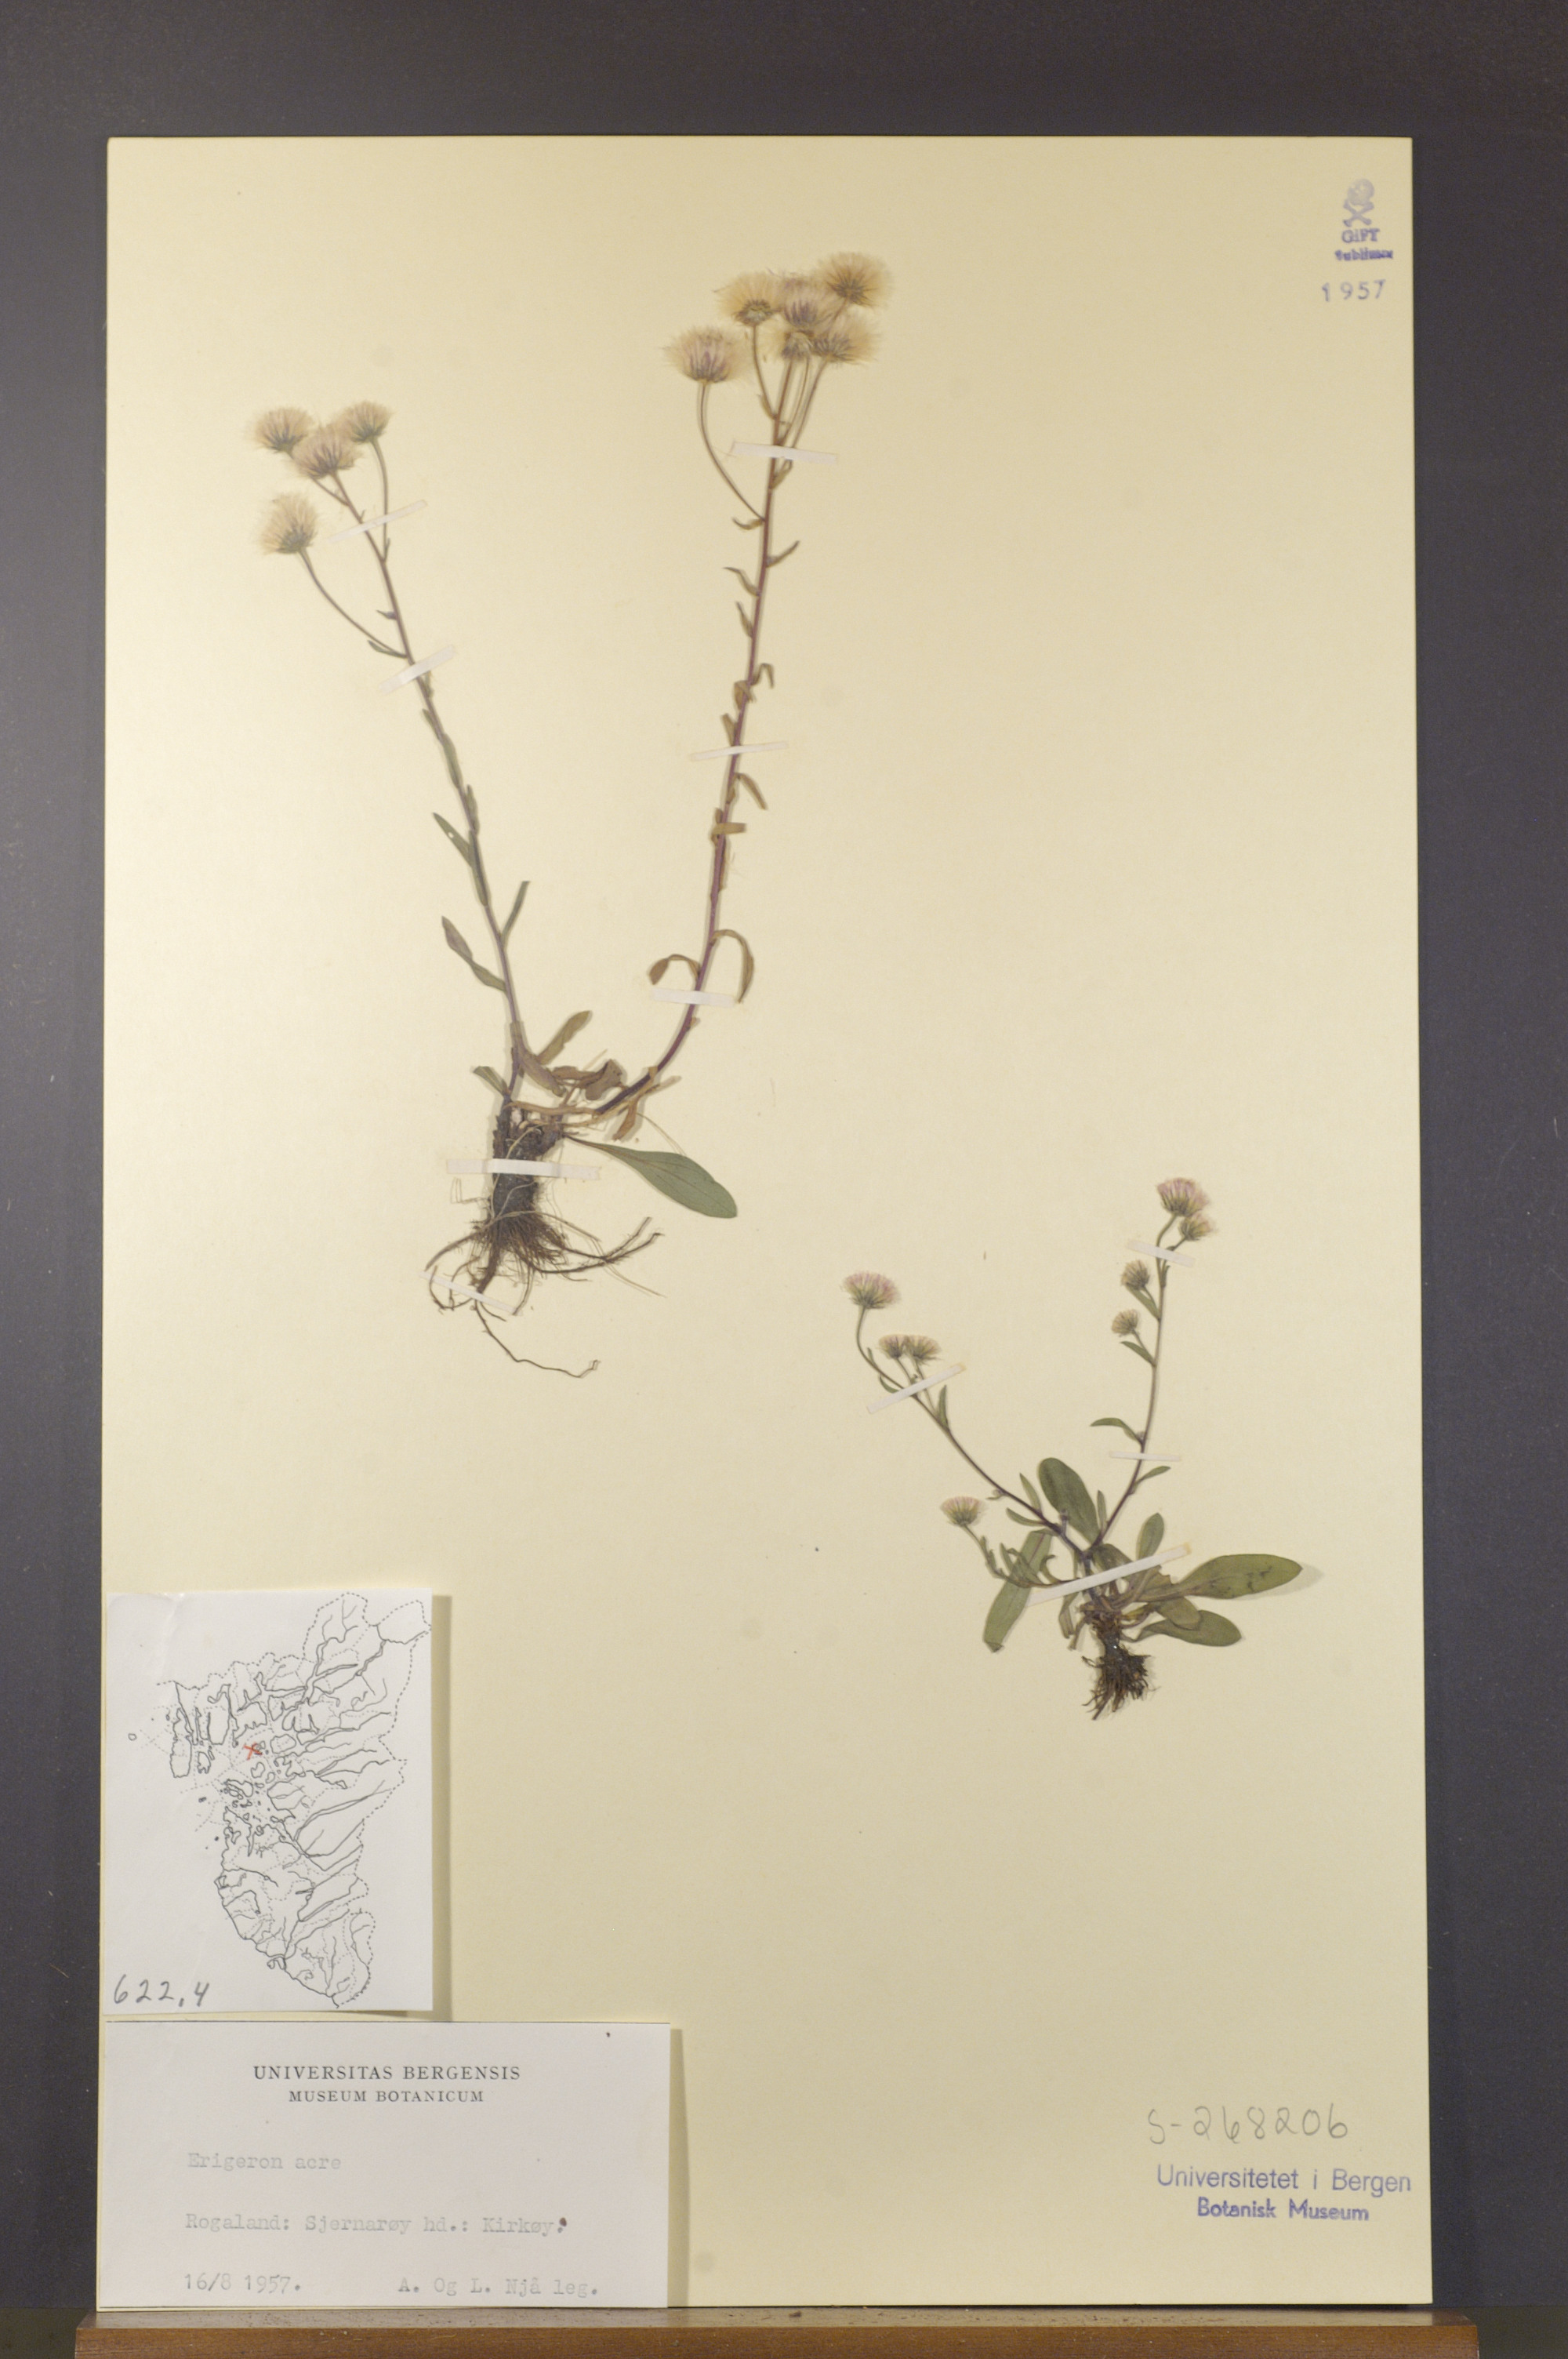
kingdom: Plantae
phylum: Tracheophyta
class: Magnoliopsida
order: Asterales
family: Asteraceae
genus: Erigeron
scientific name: Erigeron acris
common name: Blue fleabane
